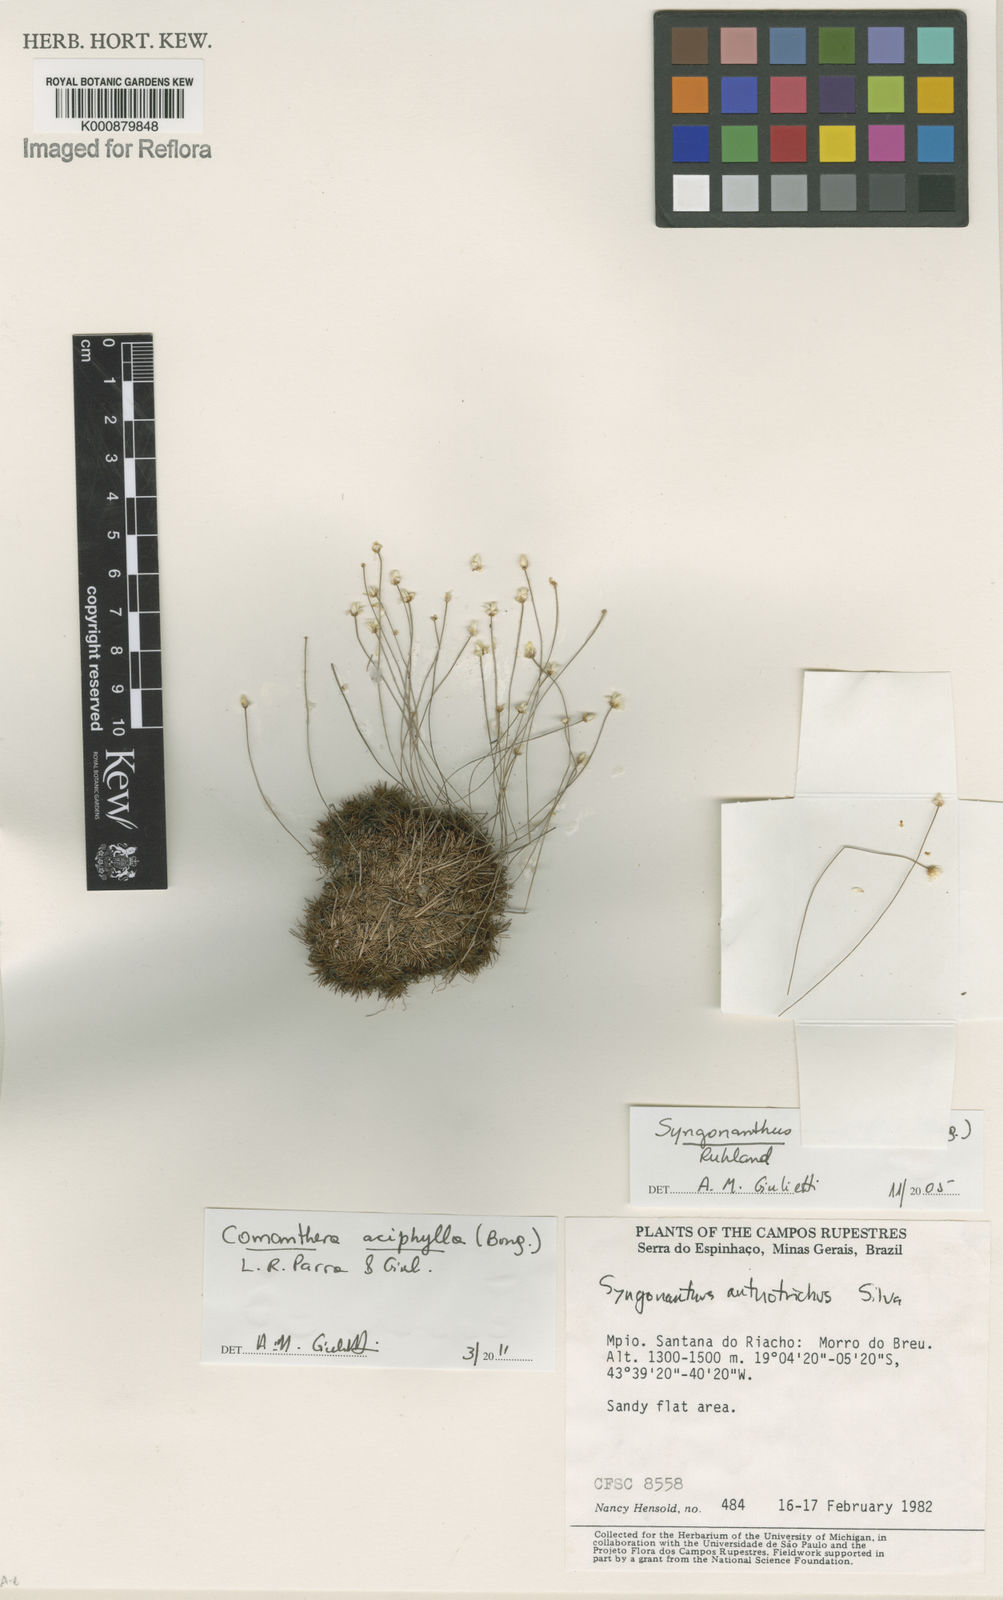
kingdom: Plantae
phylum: Tracheophyta
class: Liliopsida
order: Poales
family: Eriocaulaceae
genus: Comanthera
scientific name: Comanthera aciphylla
